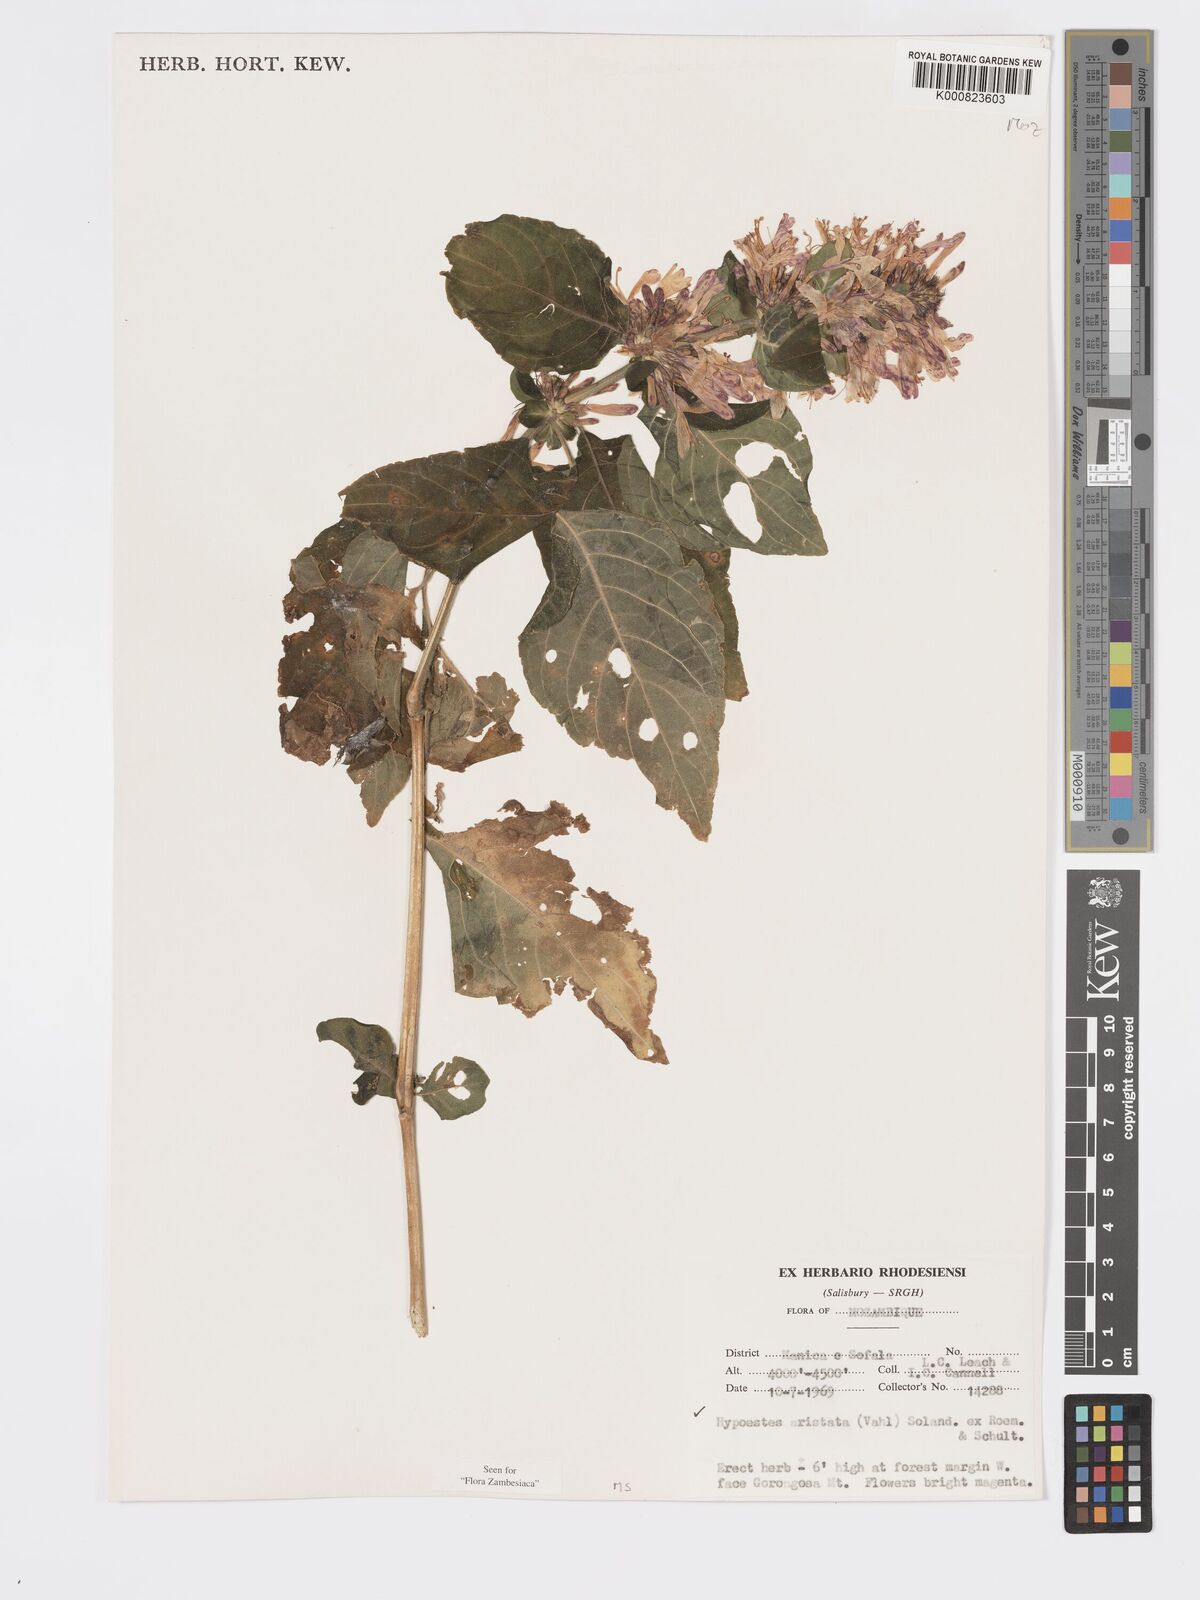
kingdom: Plantae
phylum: Tracheophyta
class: Magnoliopsida
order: Lamiales
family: Acanthaceae
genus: Hypoestes
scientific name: Hypoestes aristata
